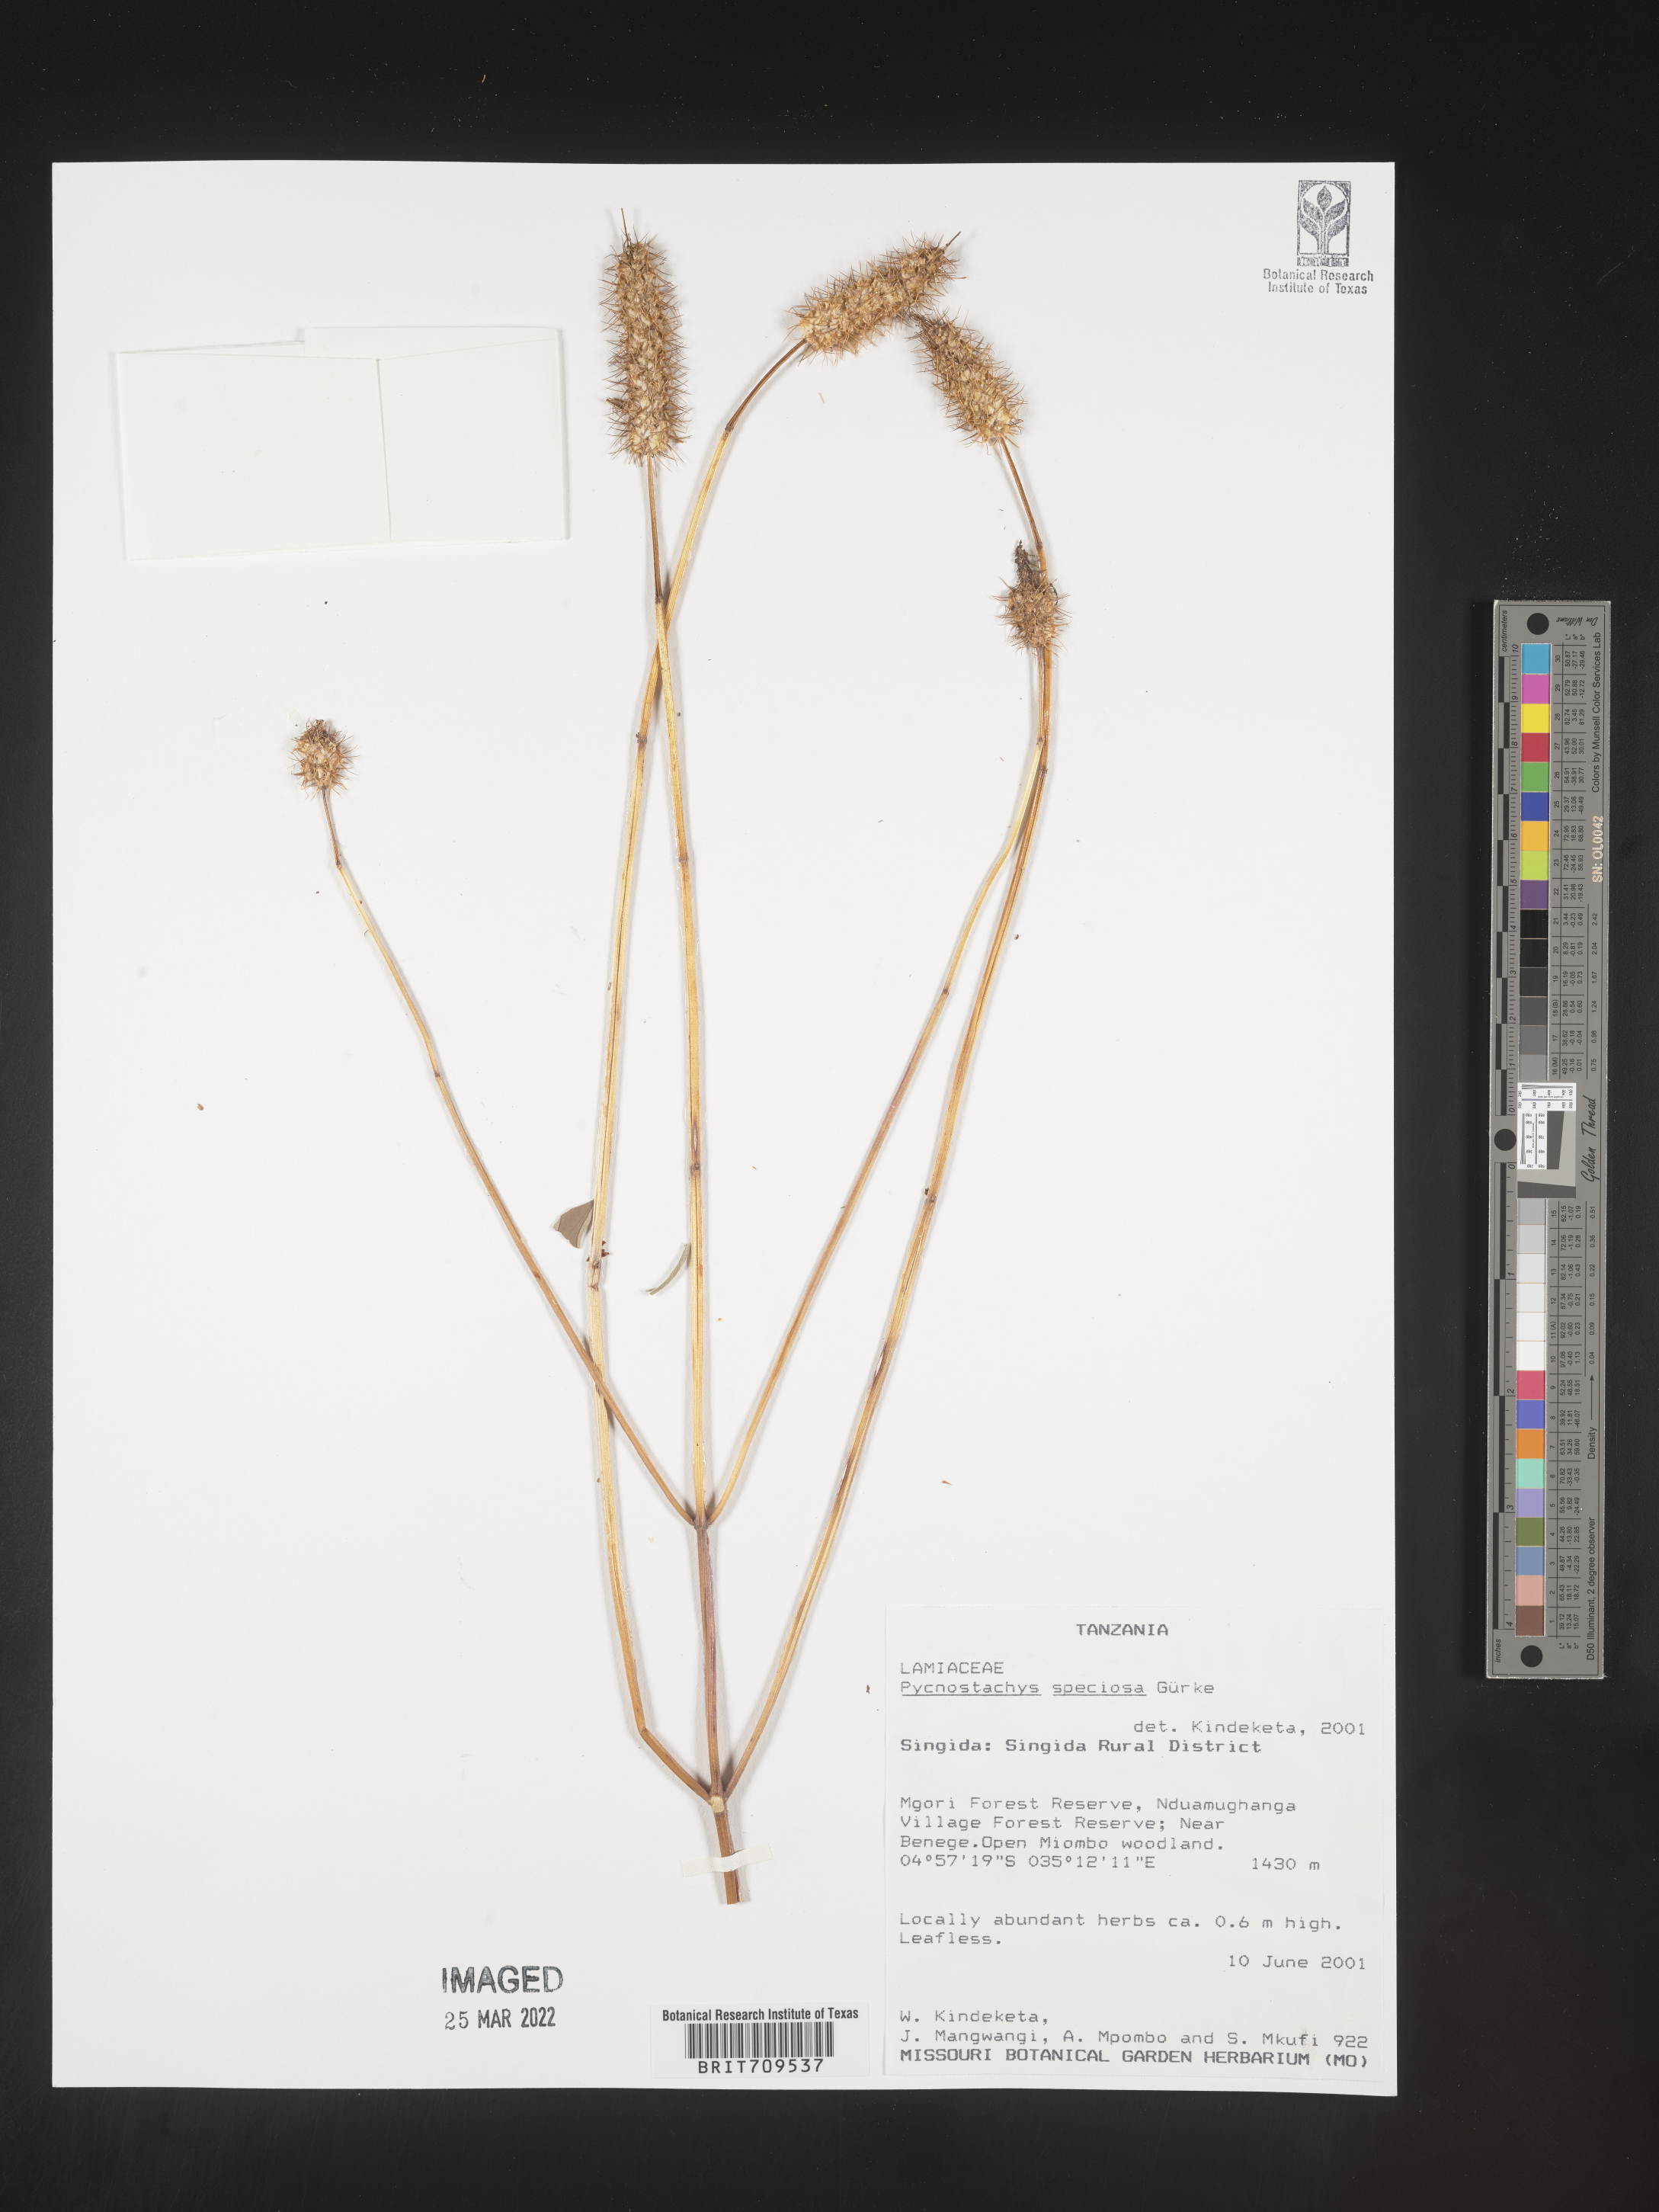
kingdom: Plantae
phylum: Tracheophyta
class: Magnoliopsida
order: Lamiales
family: Lamiaceae
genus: Coleus
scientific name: Coleus
